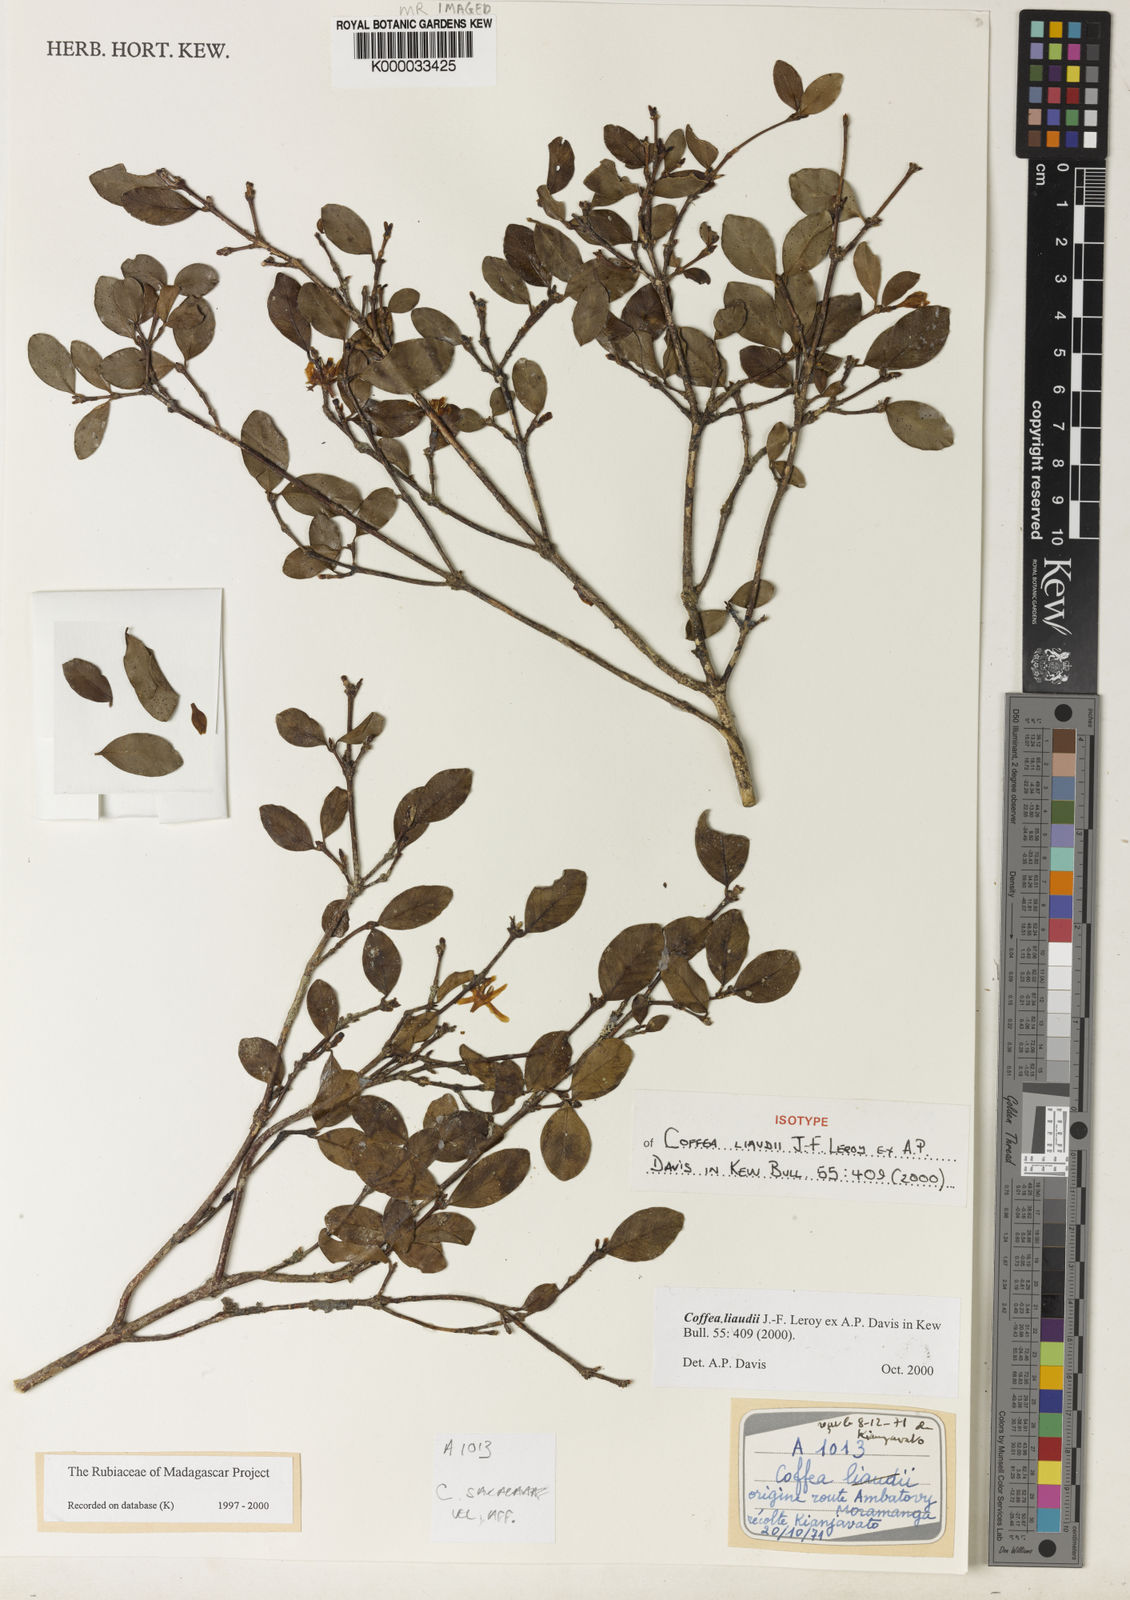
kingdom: Plantae
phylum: Tracheophyta
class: Magnoliopsida
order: Gentianales
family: Rubiaceae
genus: Coffea
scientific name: Coffea liaudii
